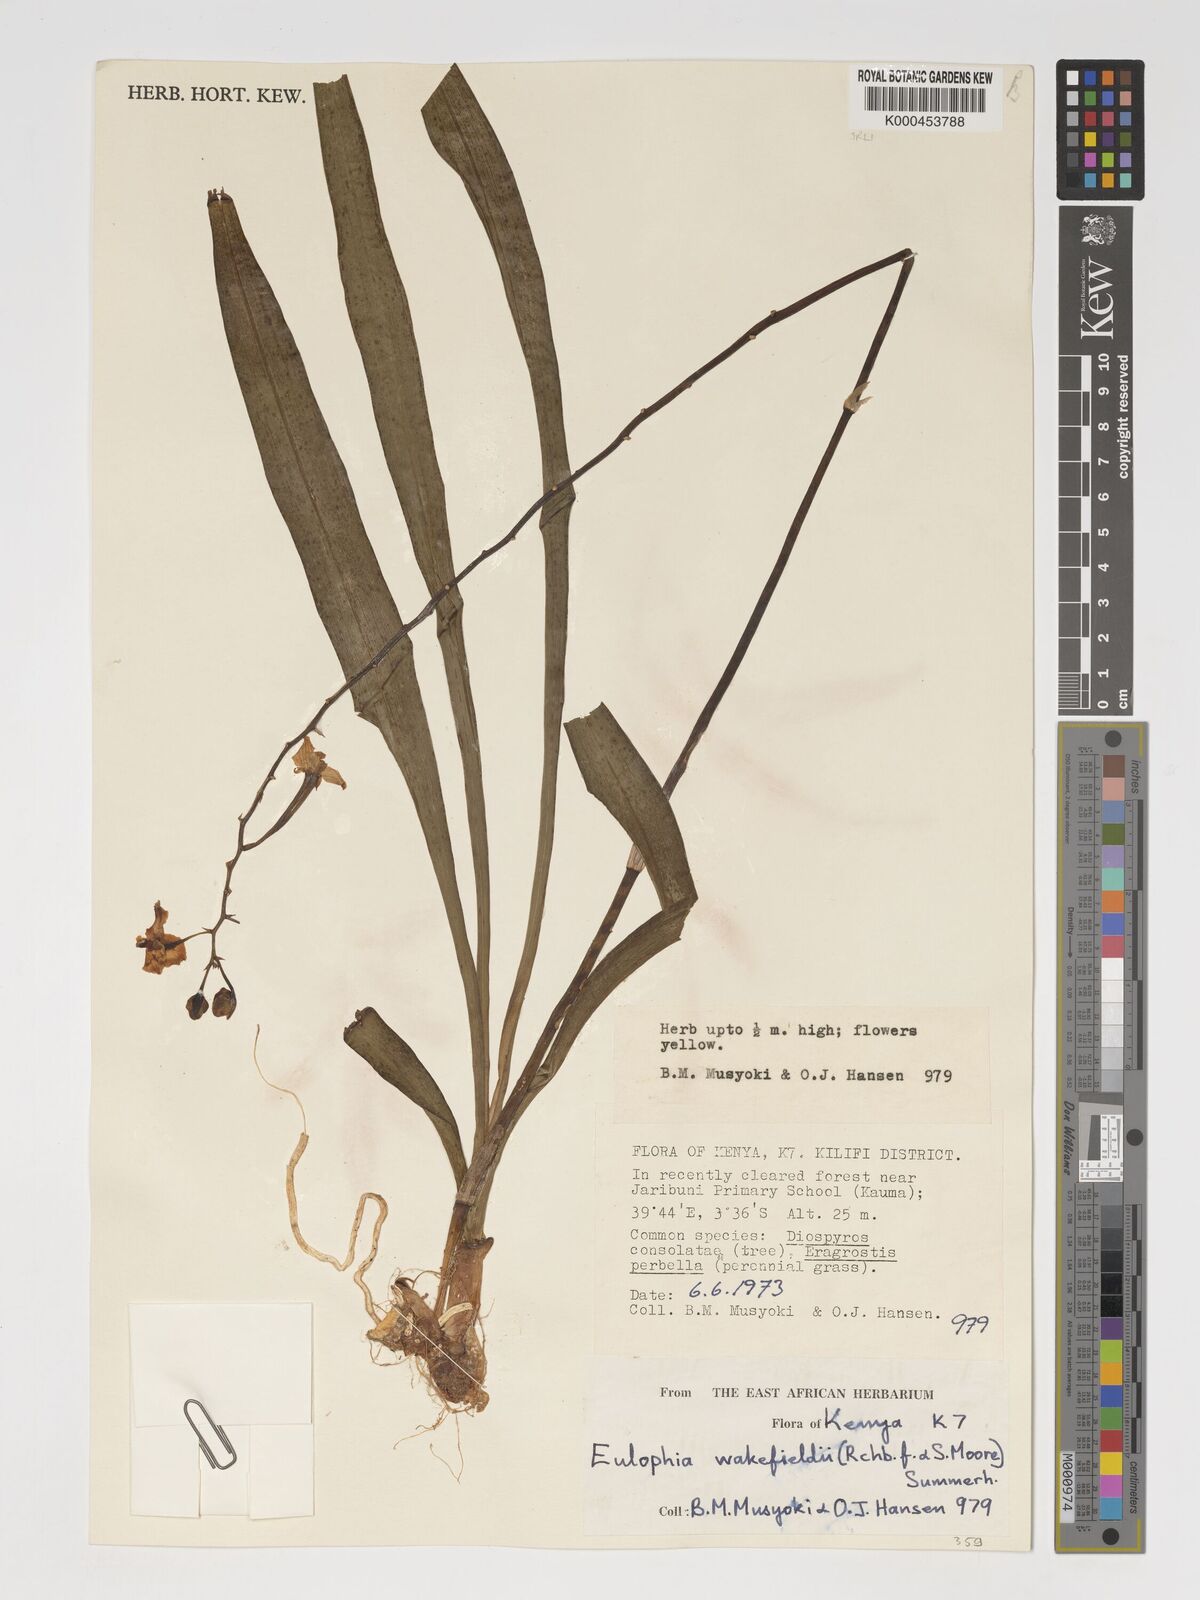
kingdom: Plantae
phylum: Tracheophyta
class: Liliopsida
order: Asparagales
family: Orchidaceae
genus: Eulophia
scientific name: Eulophia speciosa
